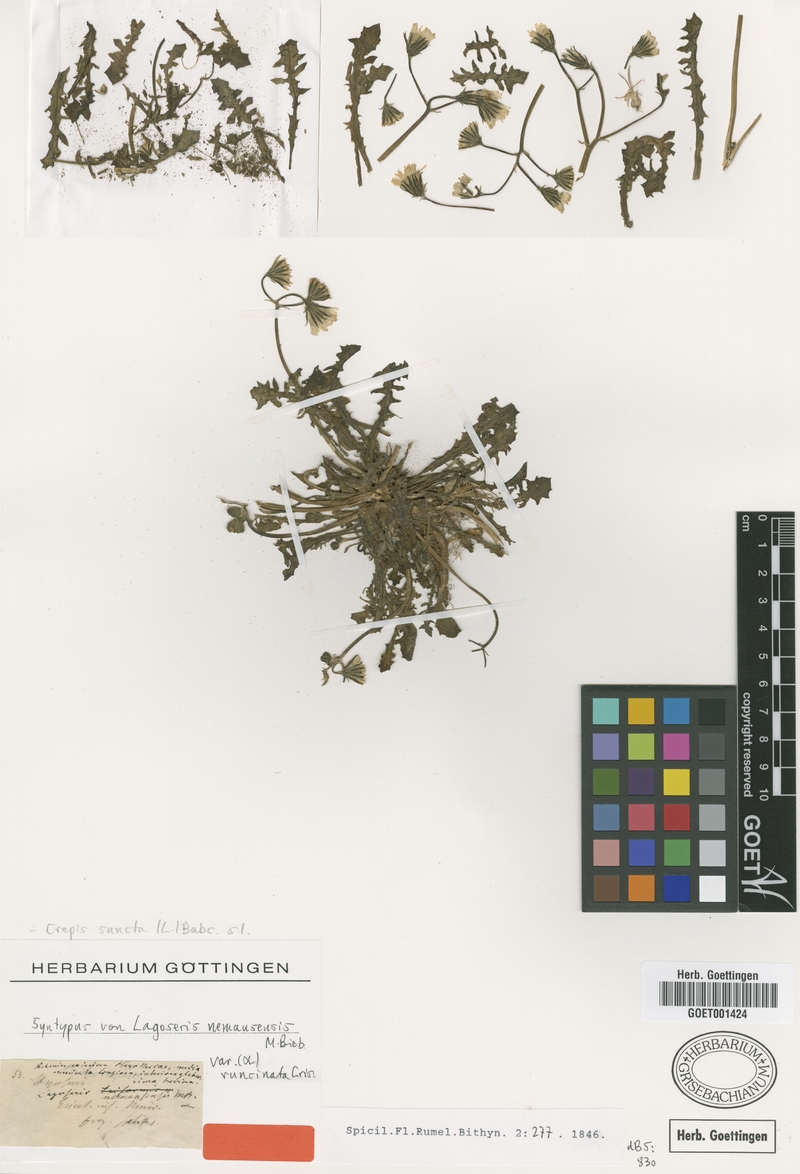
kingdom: Plantae
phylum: Tracheophyta
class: Magnoliopsida
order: Asterales
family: Asteraceae
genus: Crepis
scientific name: Crepis sancta
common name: Hawk's-beard
